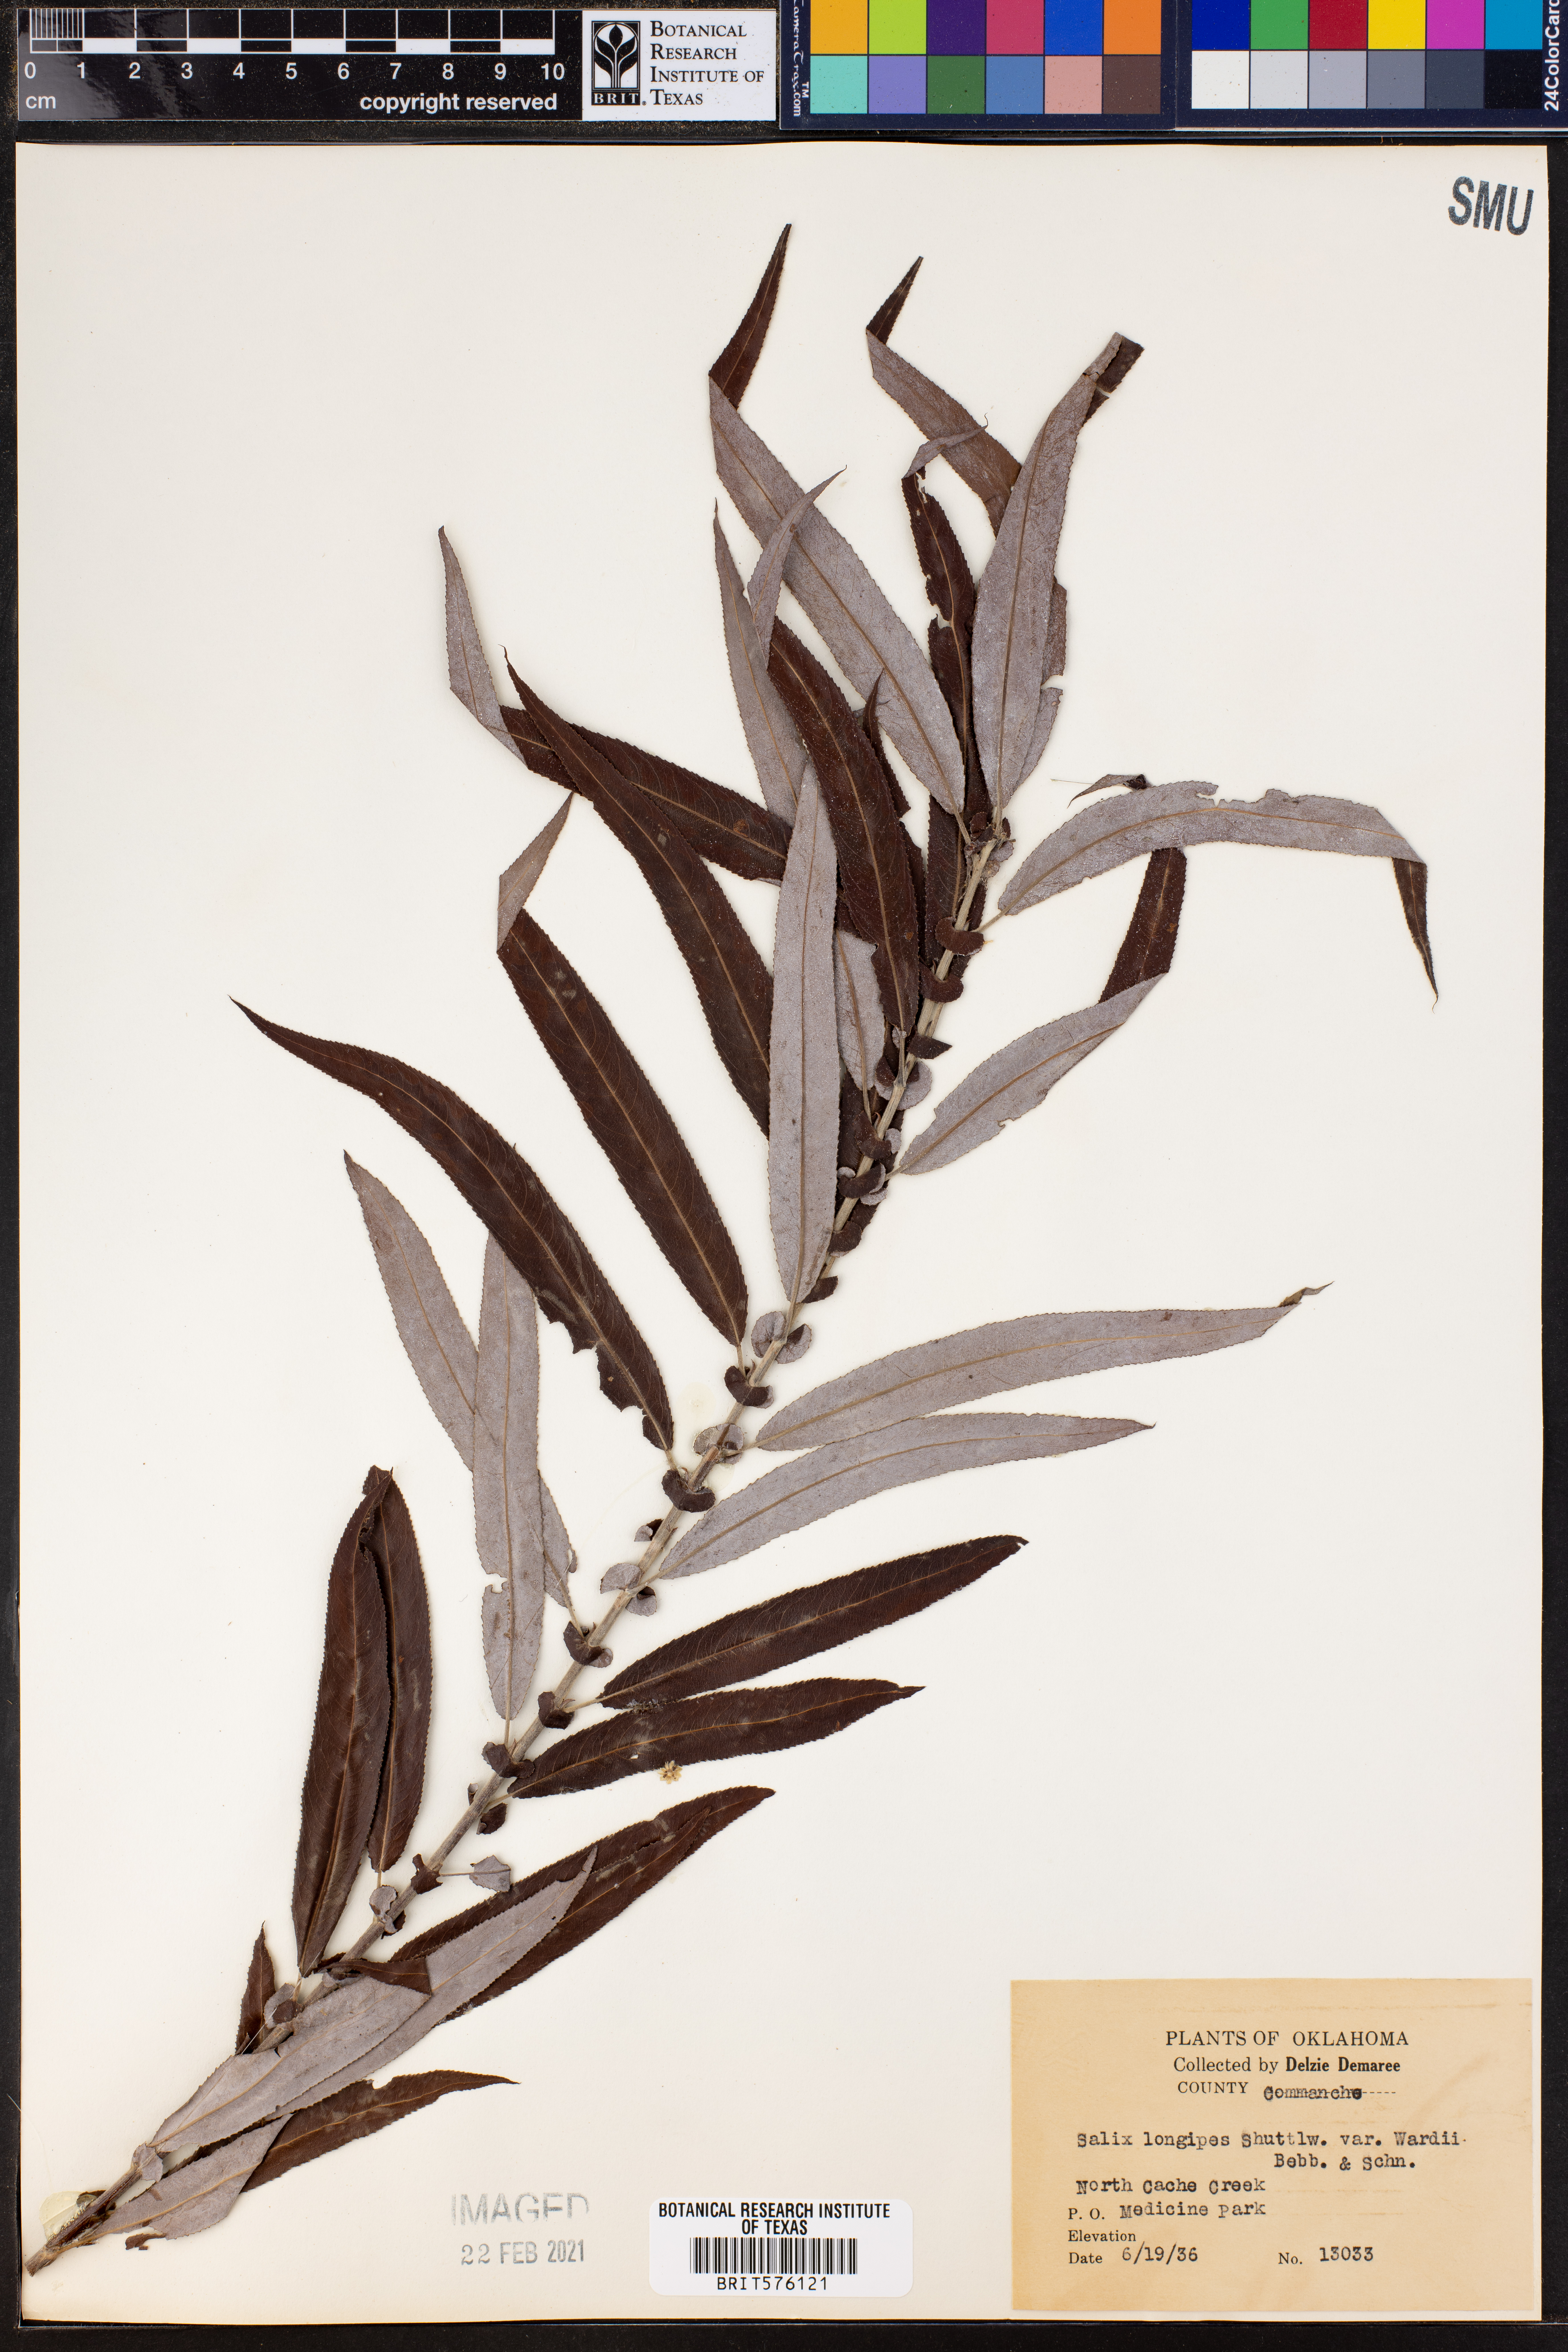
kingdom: Plantae
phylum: Tracheophyta
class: Magnoliopsida
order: Malpighiales
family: Salicaceae
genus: Salix
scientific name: Salix caroliniana
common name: Carolina willow
